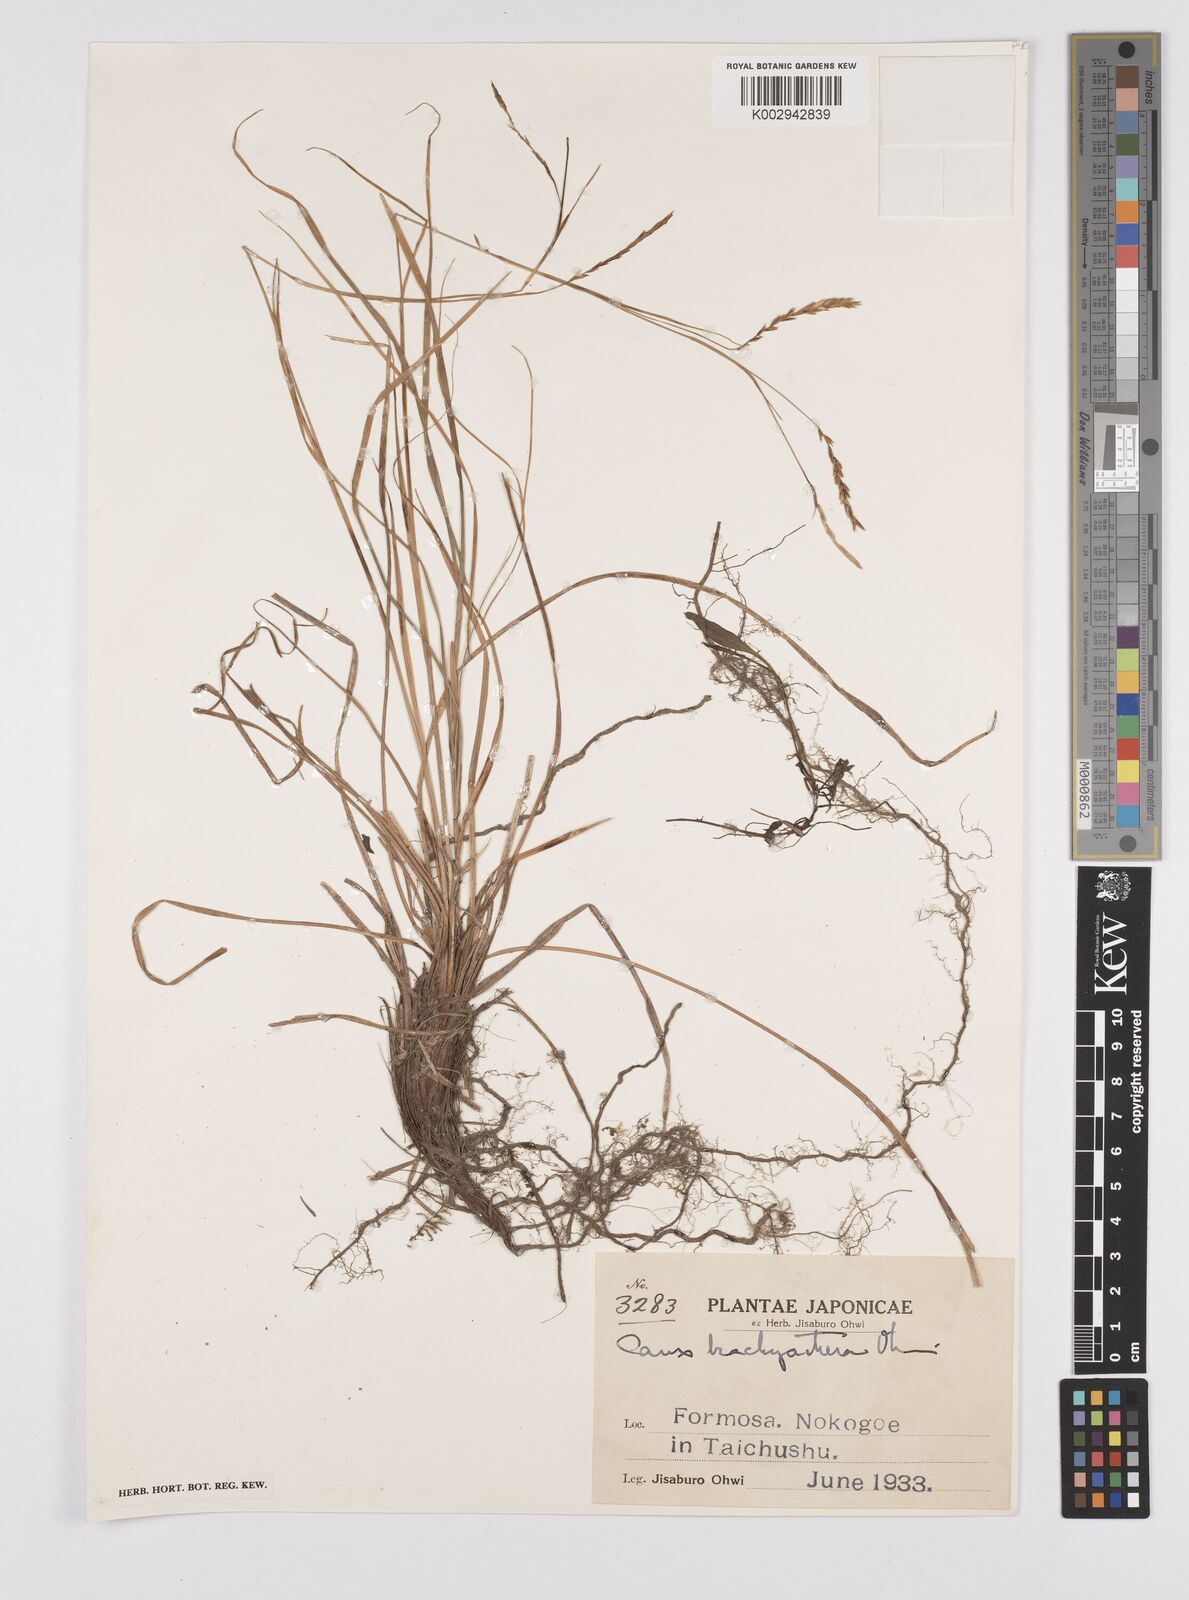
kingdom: Plantae
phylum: Tracheophyta
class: Liliopsida
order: Poales
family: Cyperaceae
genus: Carex
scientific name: Carex brachyanthera
